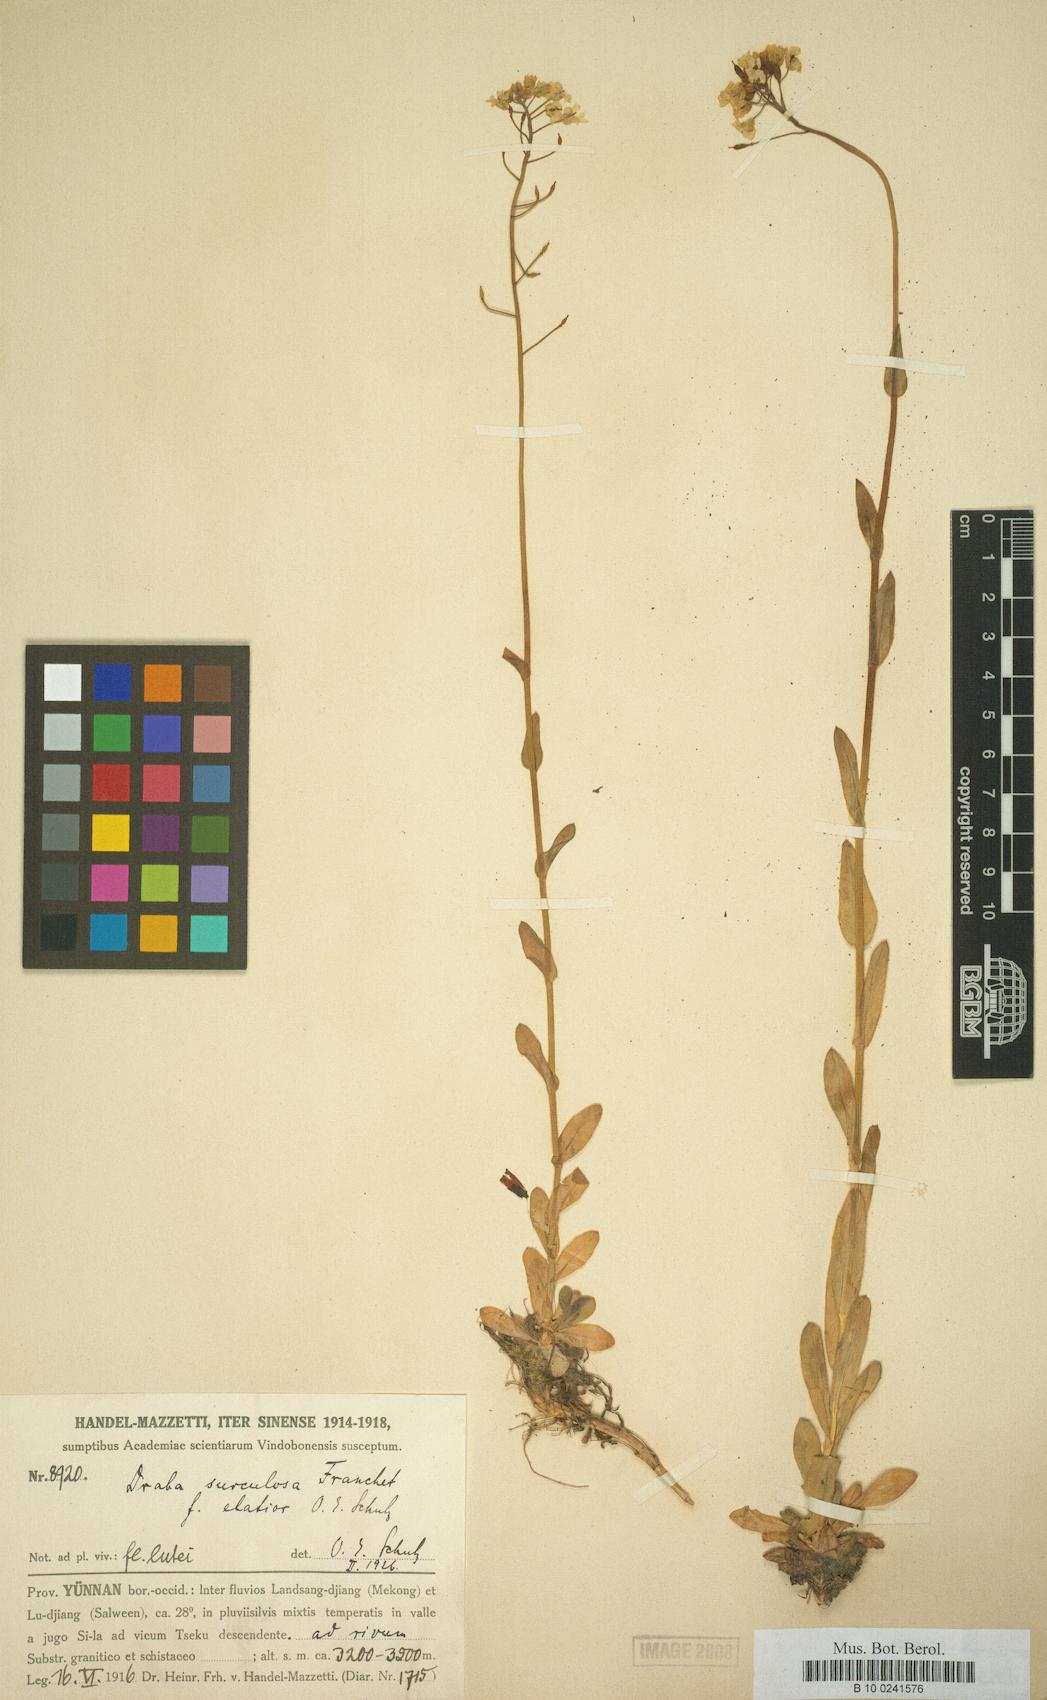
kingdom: Plantae
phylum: Tracheophyta
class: Magnoliopsida
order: Brassicales
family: Brassicaceae
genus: Draba
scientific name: Draba surculosa
